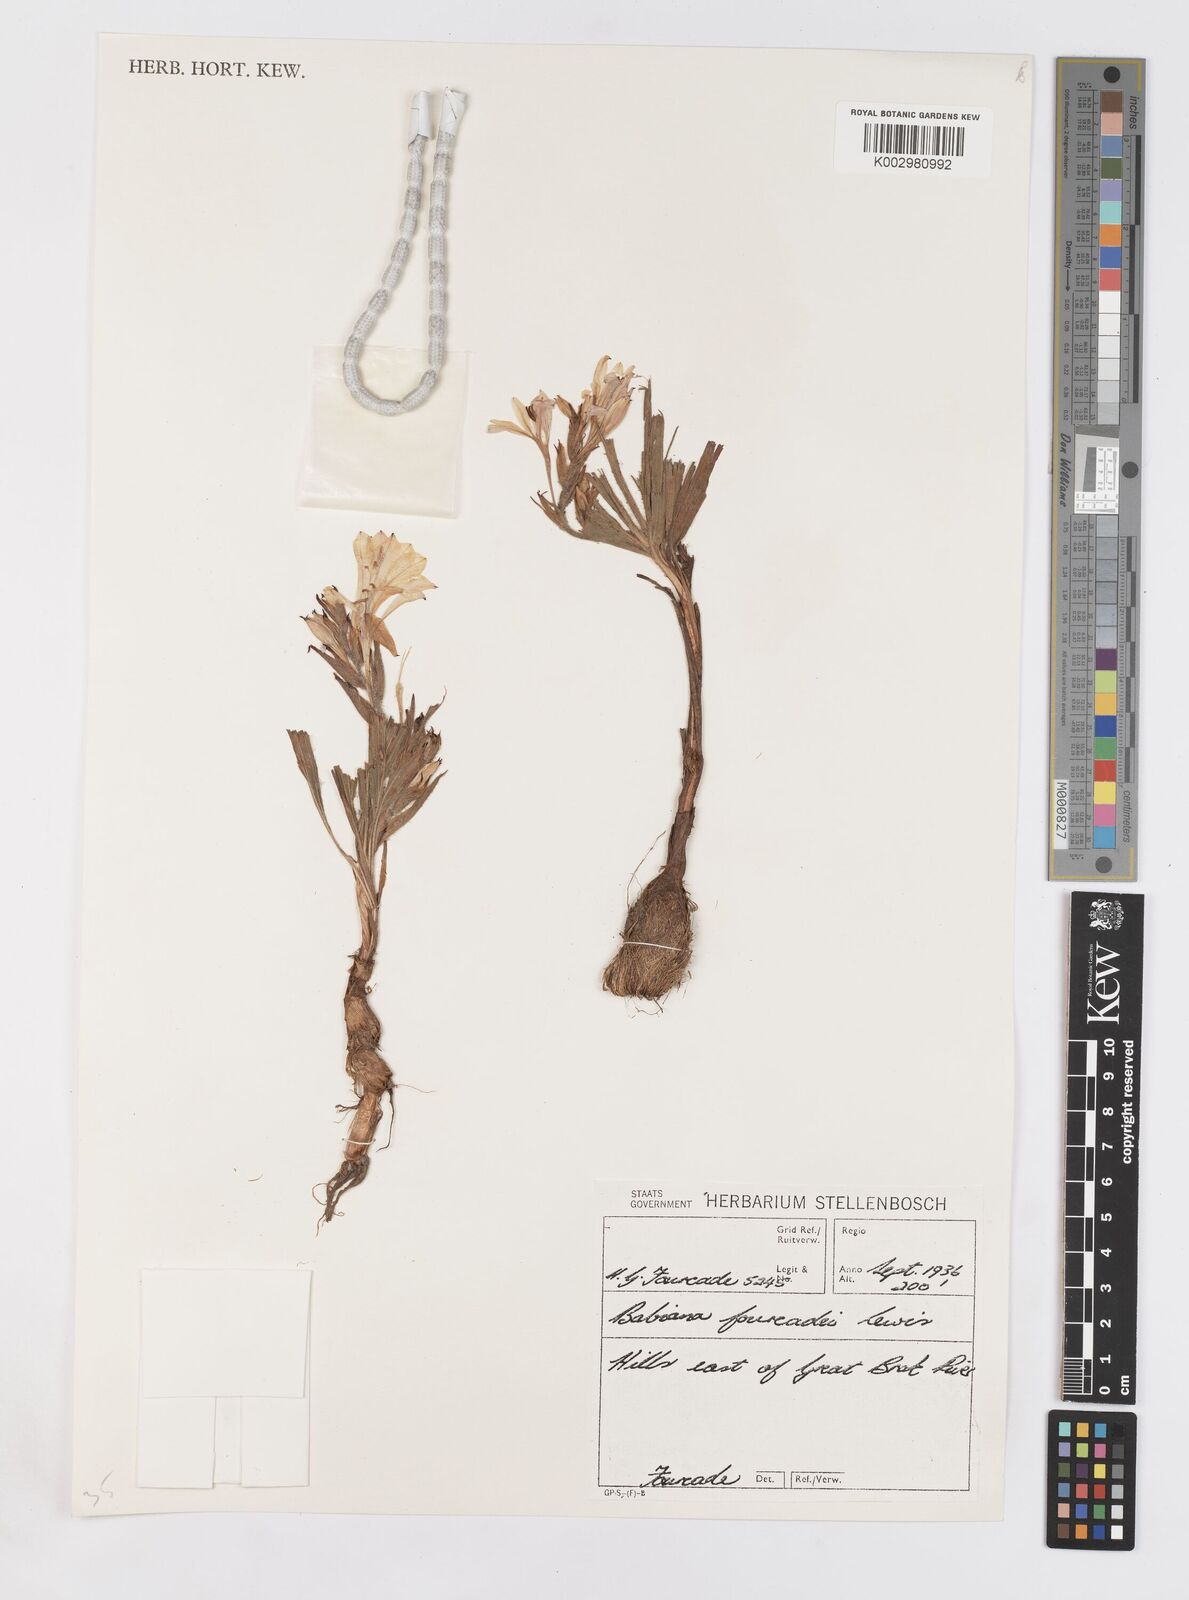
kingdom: Plantae
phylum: Tracheophyta
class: Liliopsida
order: Asparagales
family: Iridaceae
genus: Babiana
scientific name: Babiana fourcadei
